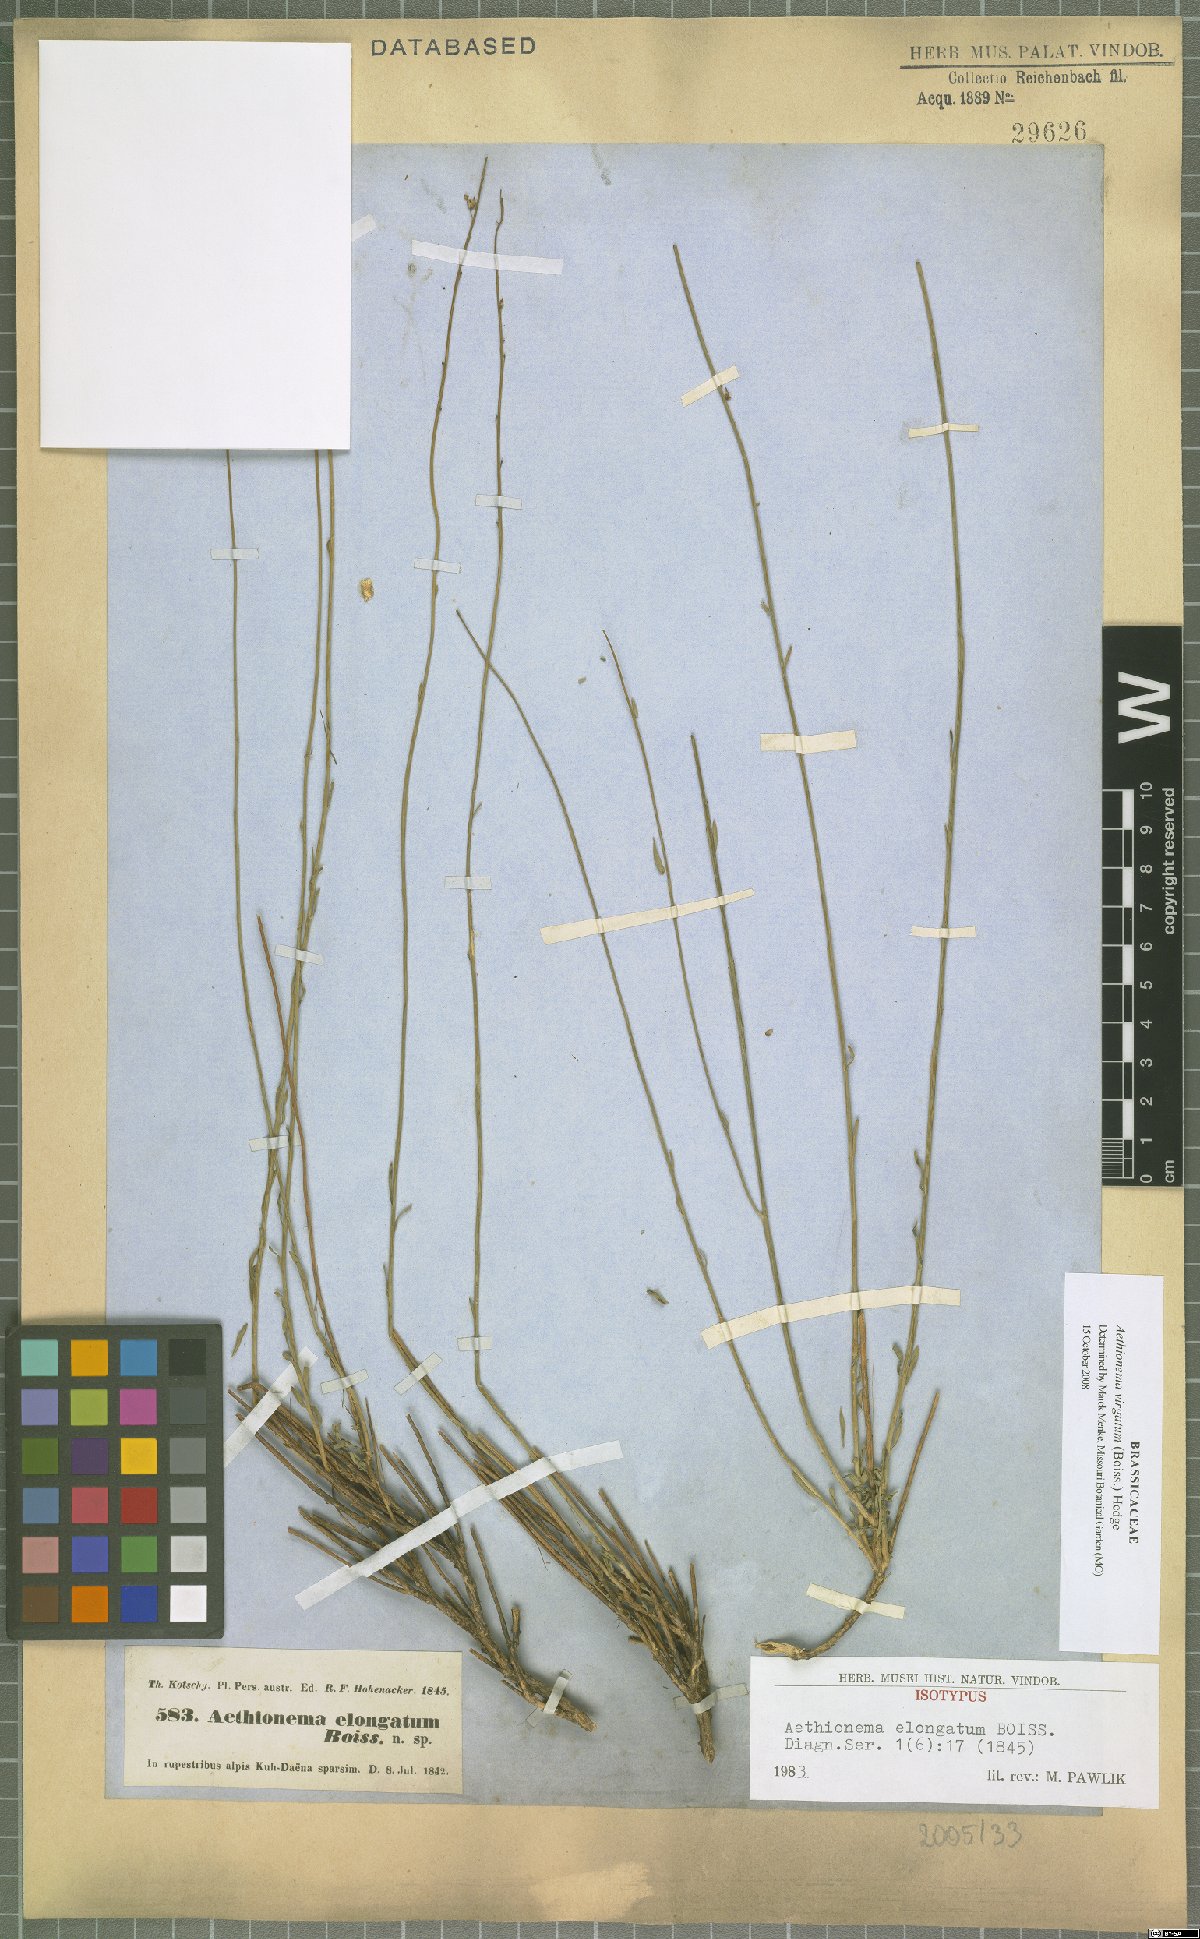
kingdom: Plantae
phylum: Tracheophyta
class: Magnoliopsida
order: Brassicales
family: Brassicaceae
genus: Aethionema
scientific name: Aethionema virgatum
